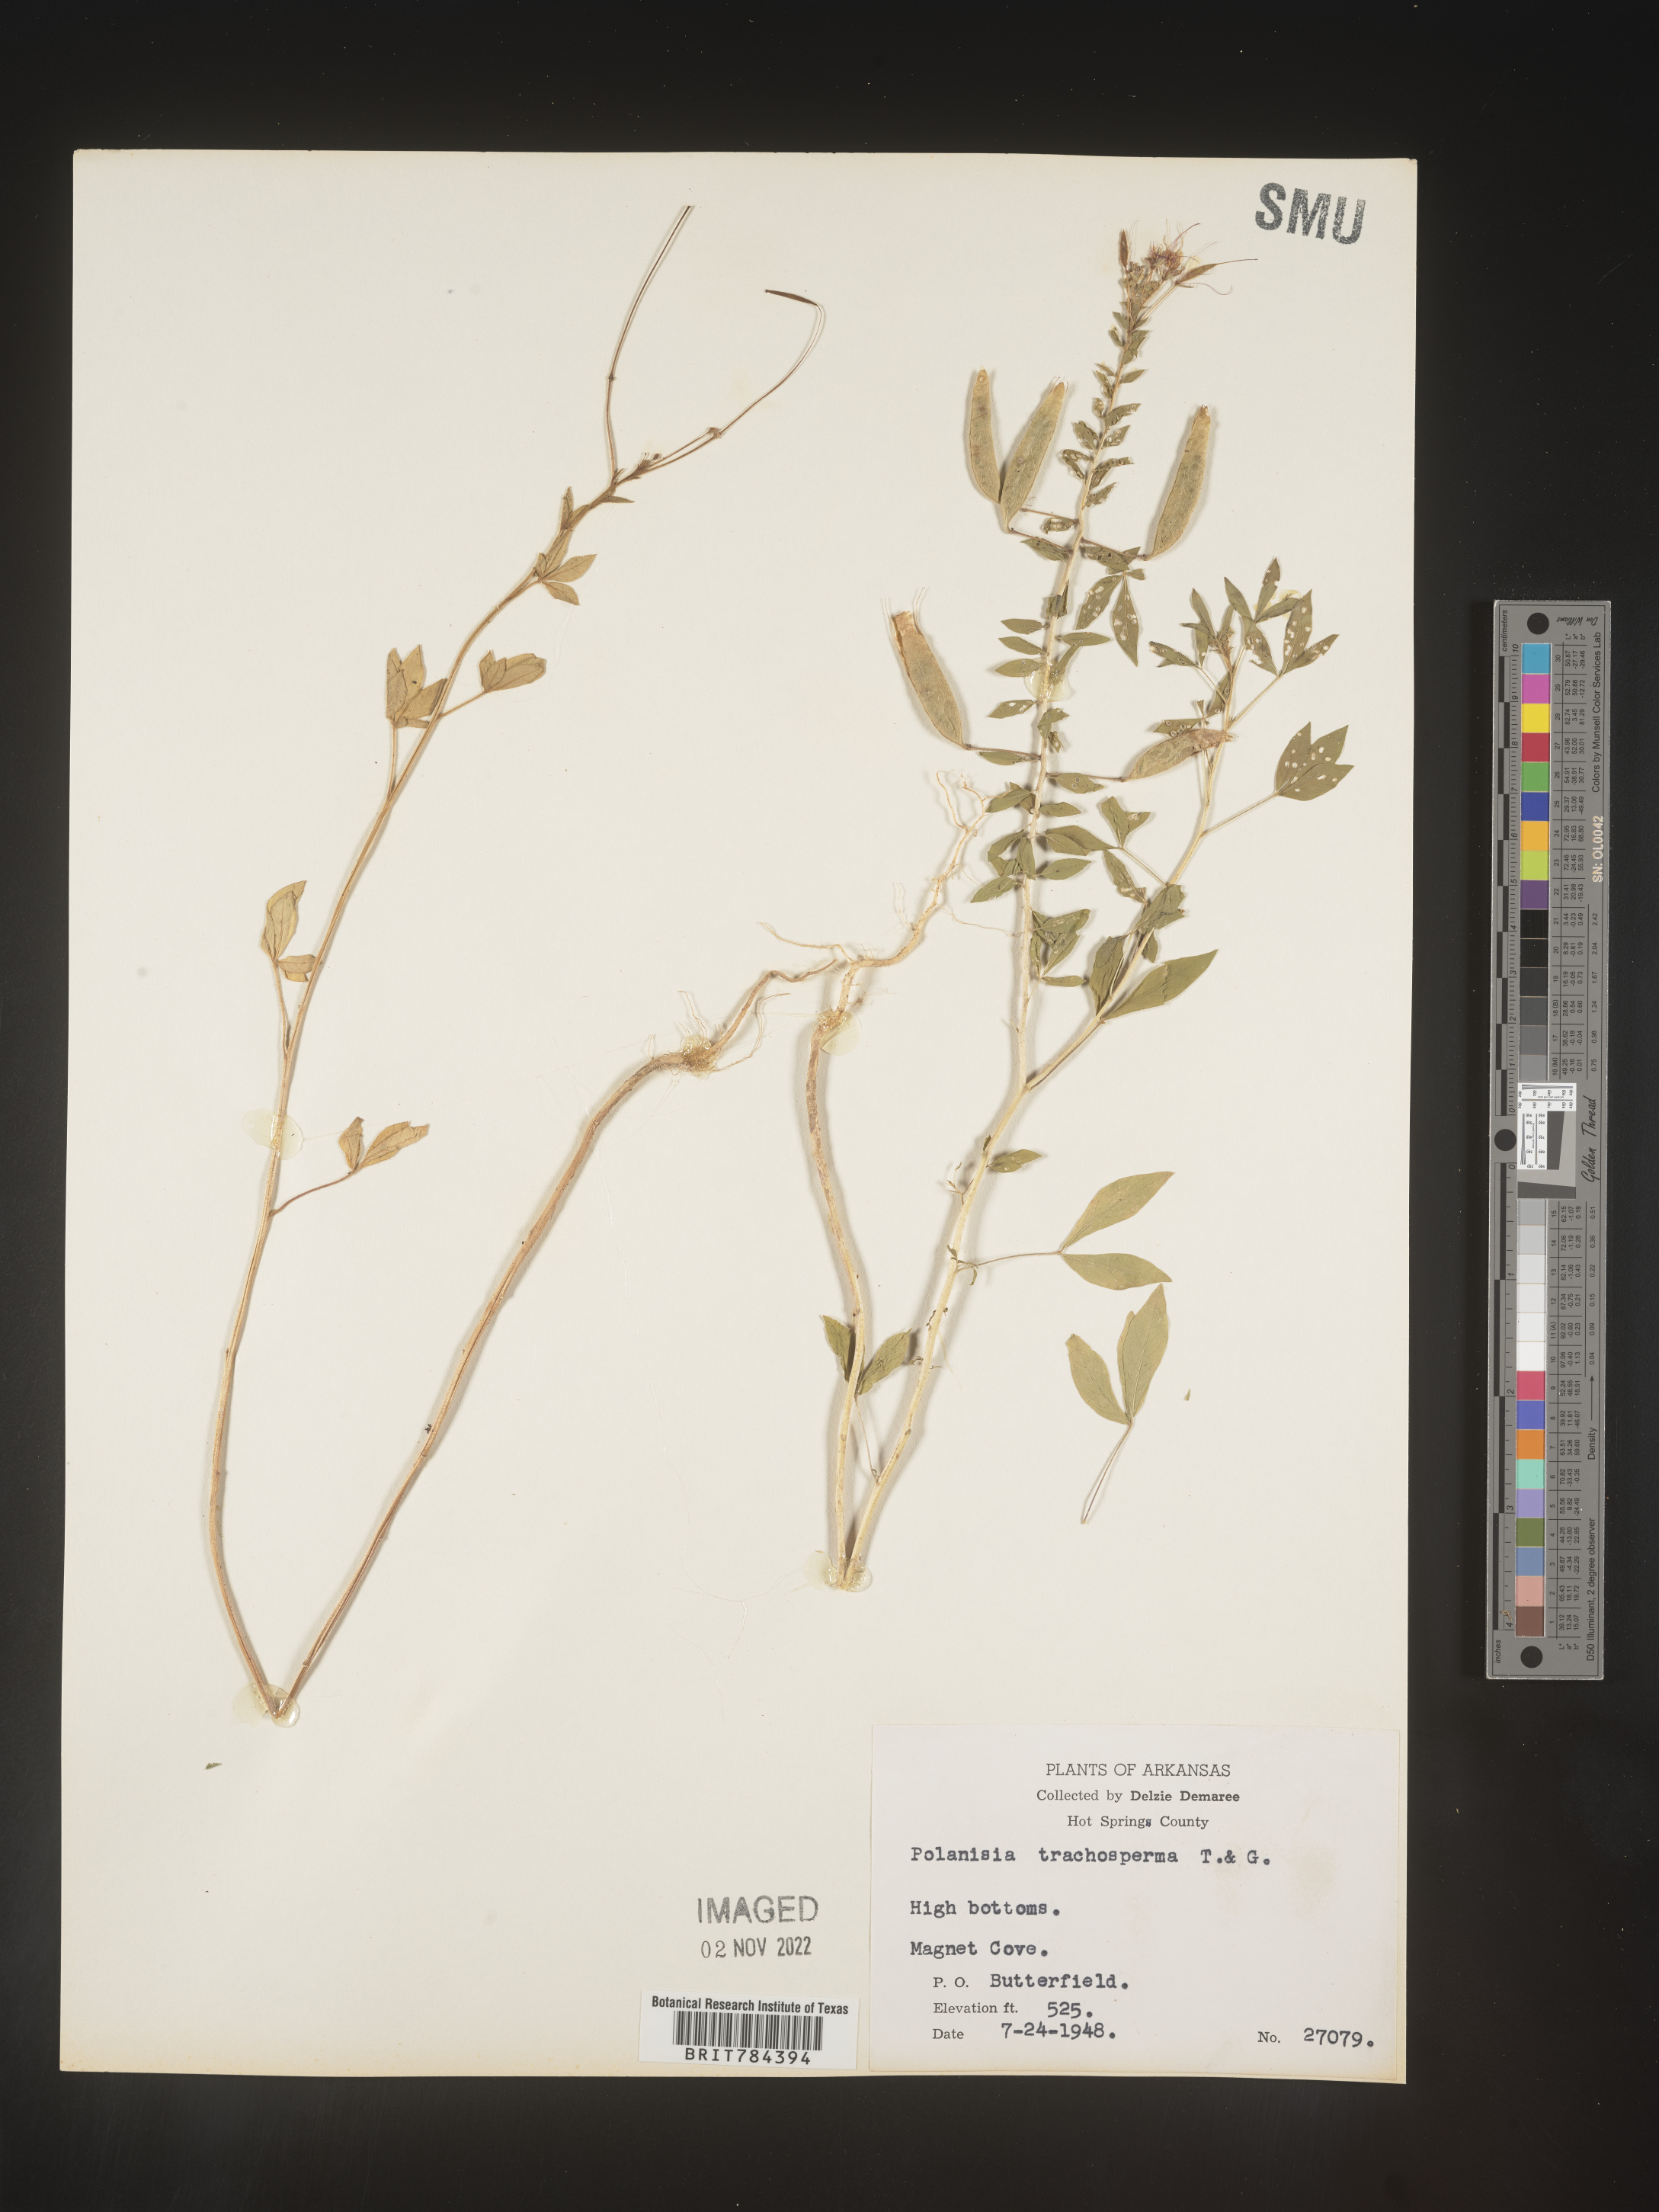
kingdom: Plantae
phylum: Tracheophyta
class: Magnoliopsida
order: Brassicales
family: Cleomaceae
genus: Polanisia
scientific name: Polanisia dodecandra
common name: Clammyweed
